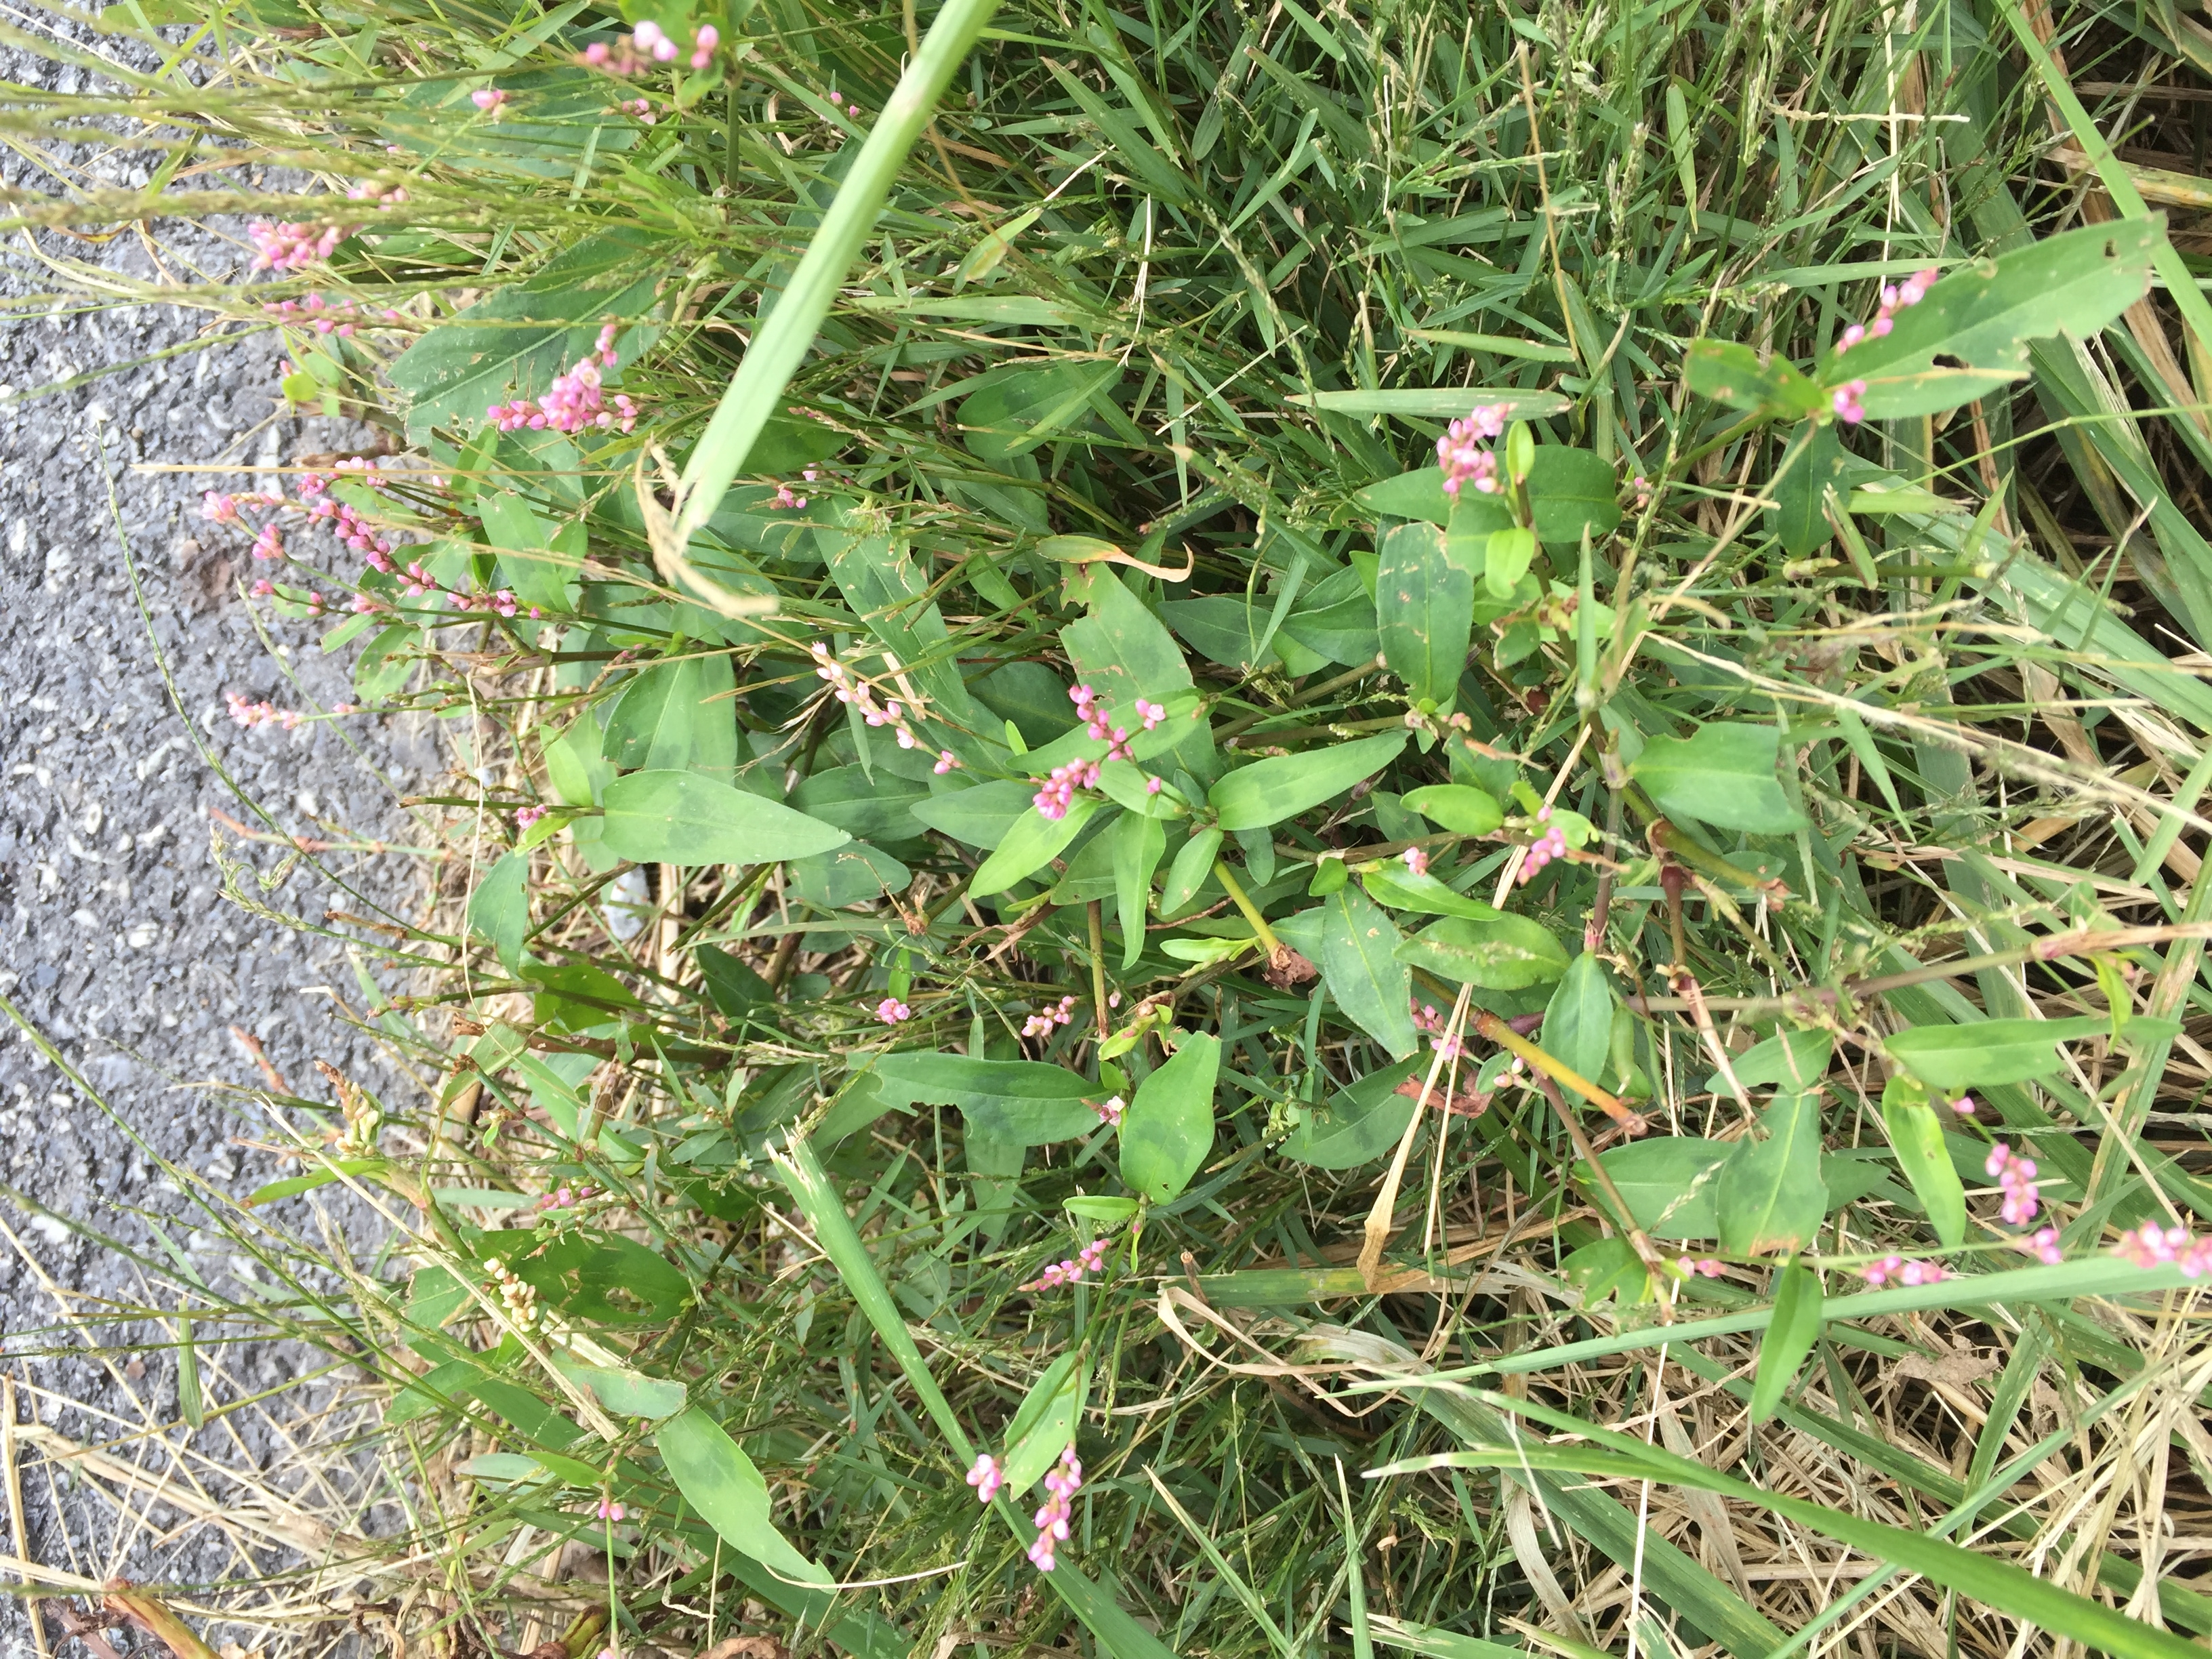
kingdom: Plantae
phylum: Tracheophyta
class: Magnoliopsida
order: Caryophyllales
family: Polygonaceae
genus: Persicaria
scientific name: Persicaria longiseta
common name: Low smartweed
